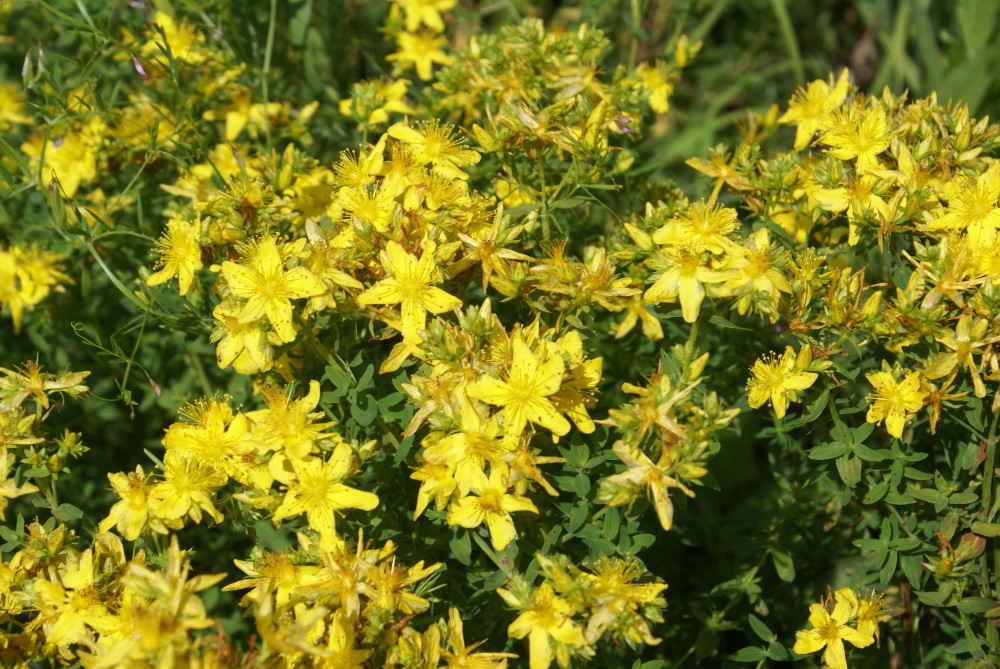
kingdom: Plantae
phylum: Tracheophyta
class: Magnoliopsida
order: Malpighiales
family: Hypericaceae
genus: Hypericum
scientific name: Hypericum perforatum
